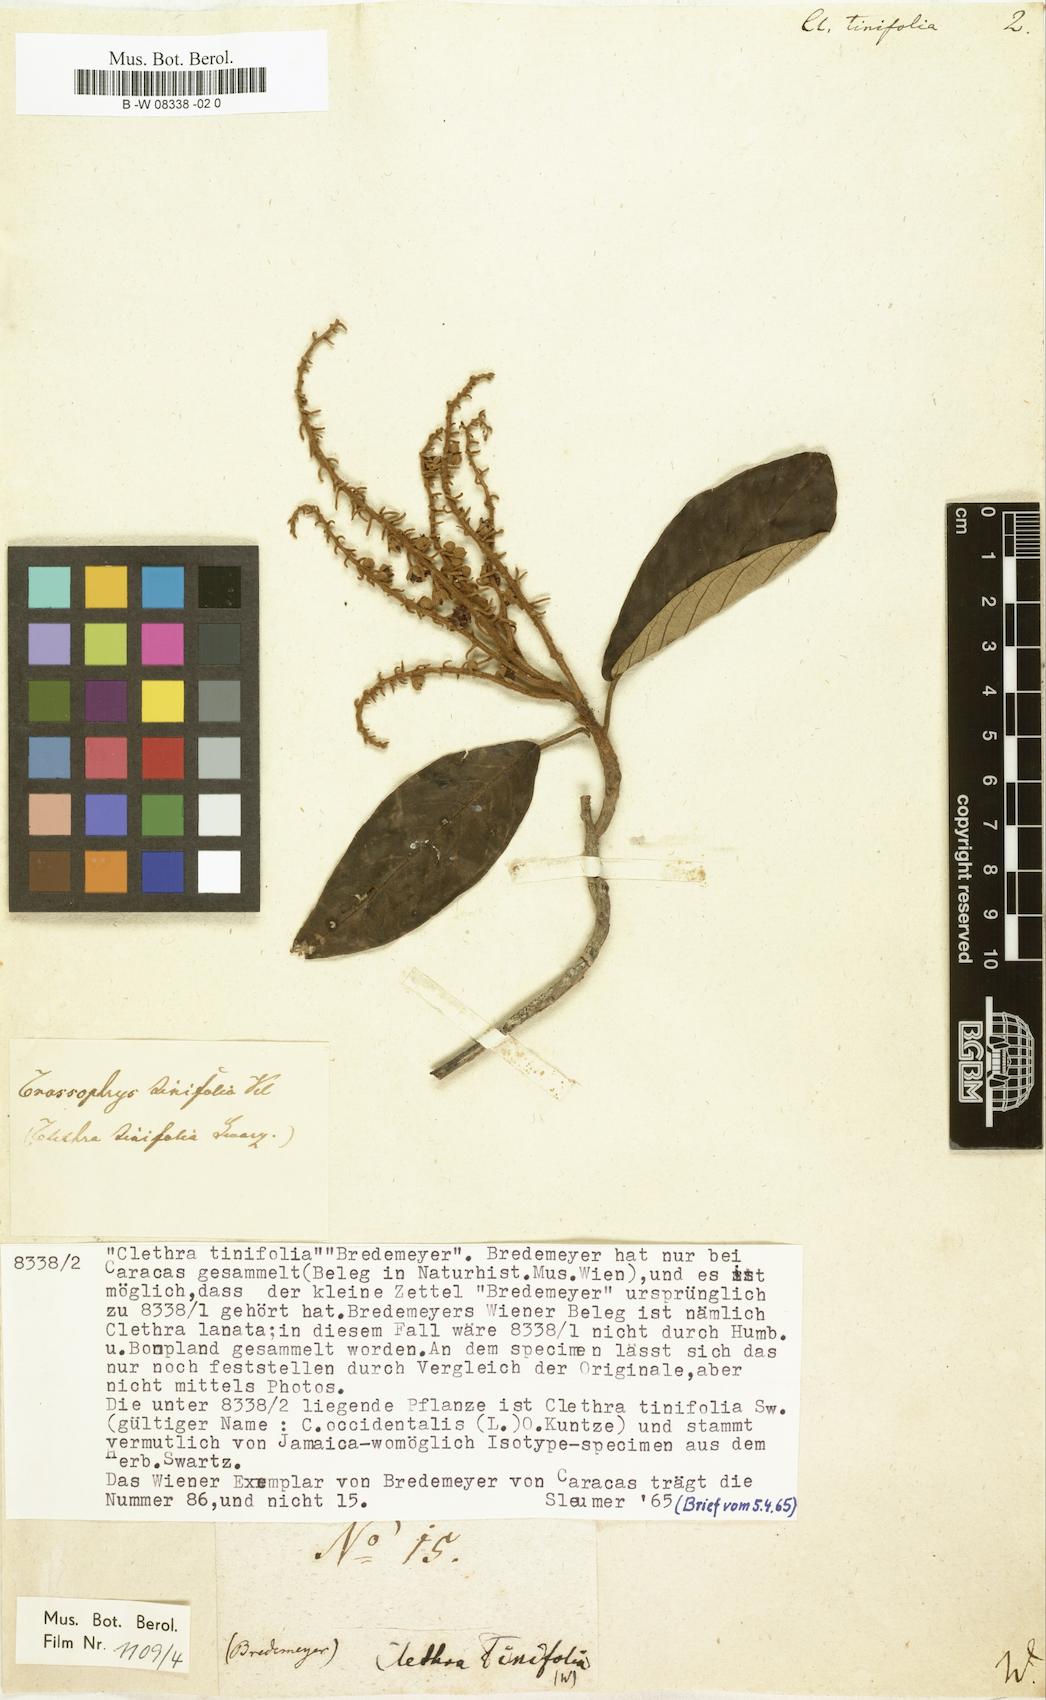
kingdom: Plantae
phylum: Tracheophyta
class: Magnoliopsida
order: Ericales
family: Clethraceae
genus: Clethra
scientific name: Clethra tinifolia
